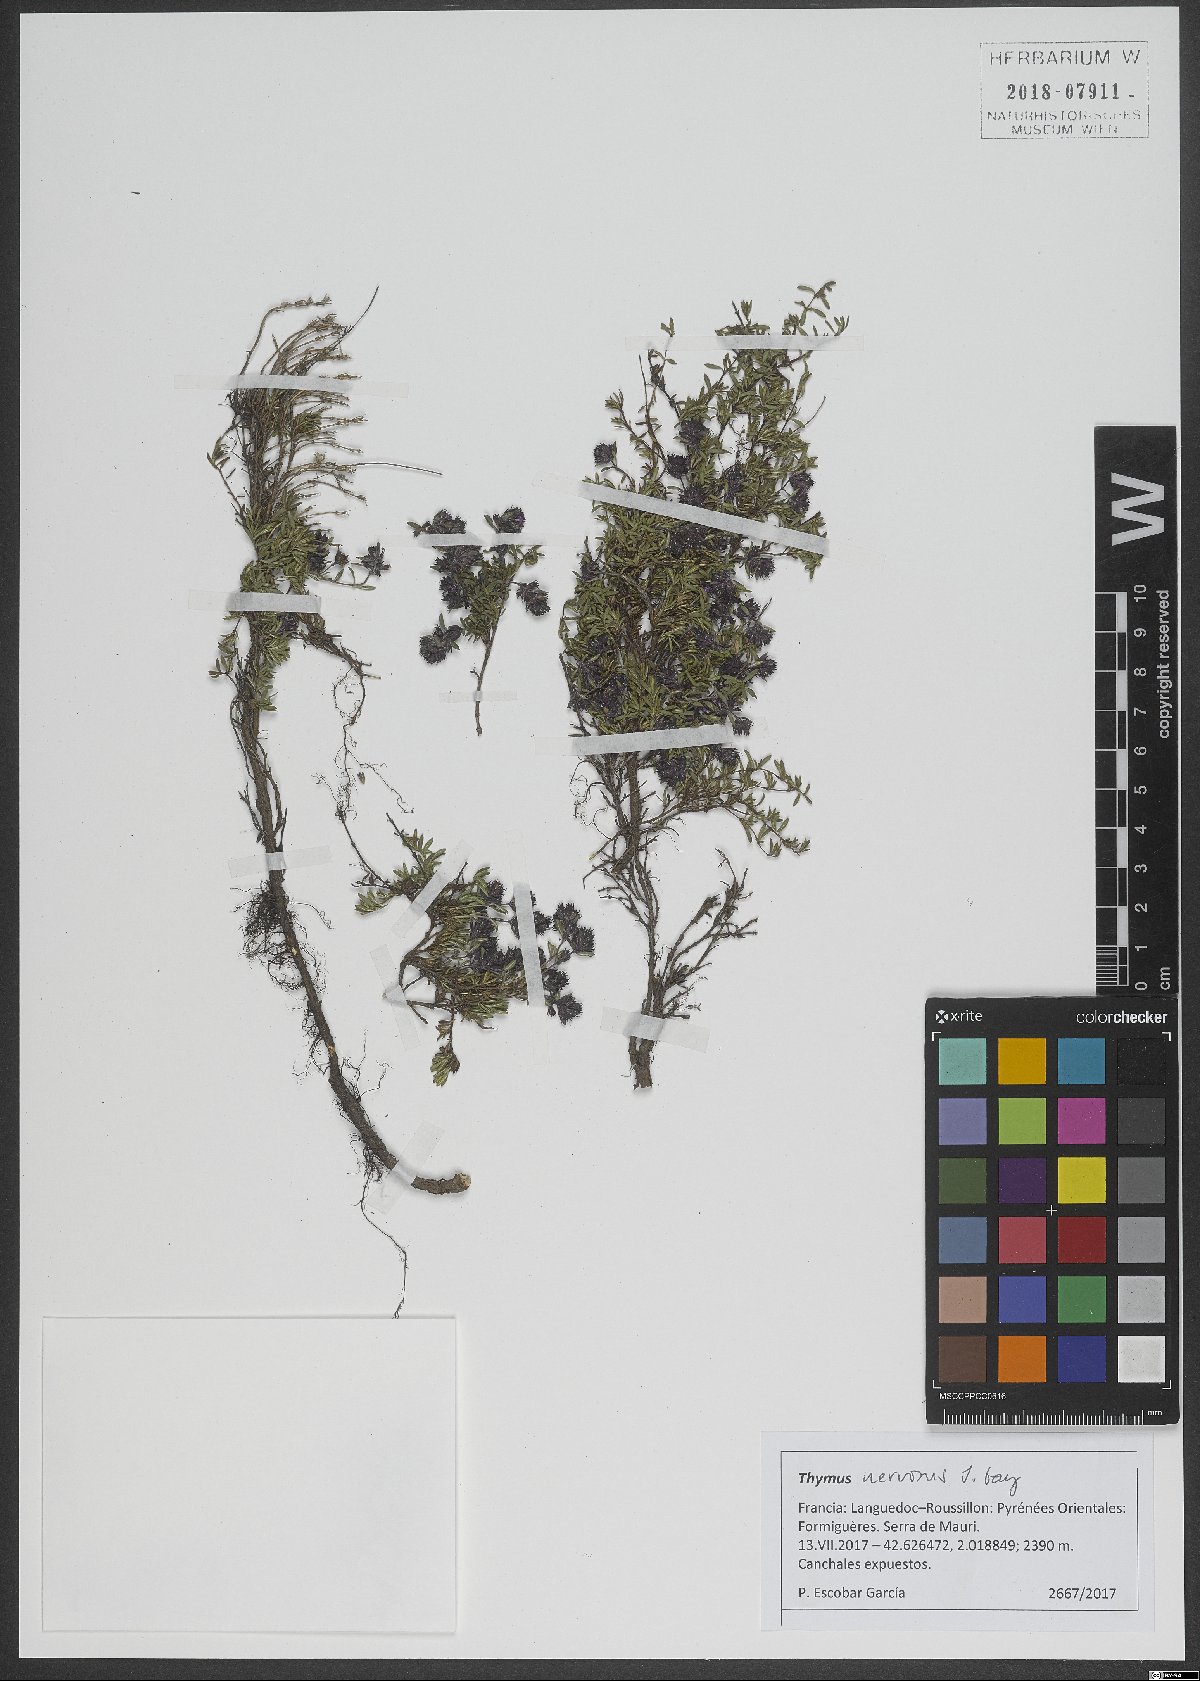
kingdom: Plantae
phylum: Tracheophyta
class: Magnoliopsida
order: Lamiales
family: Lamiaceae
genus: Thymus
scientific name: Thymus nervosus
